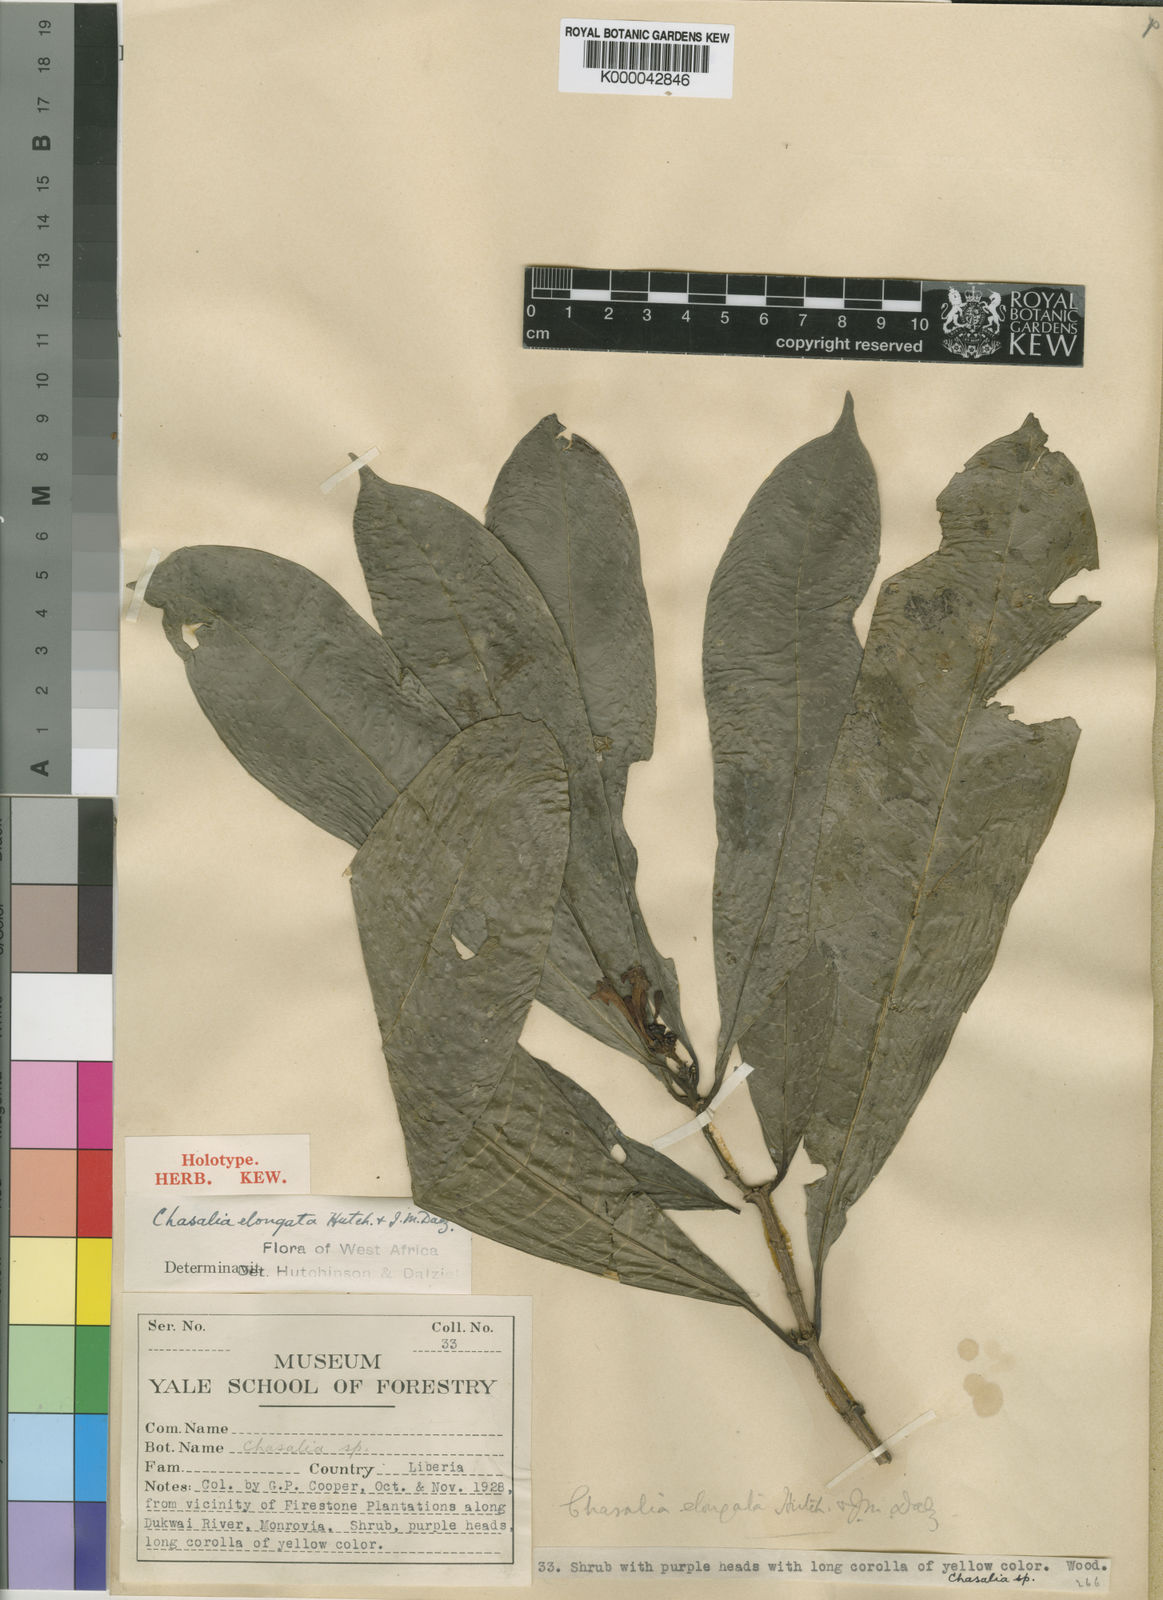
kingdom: Plantae
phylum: Tracheophyta
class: Magnoliopsida
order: Gentianales
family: Rubiaceae
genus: Chassalia
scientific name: Chassalia elongata
